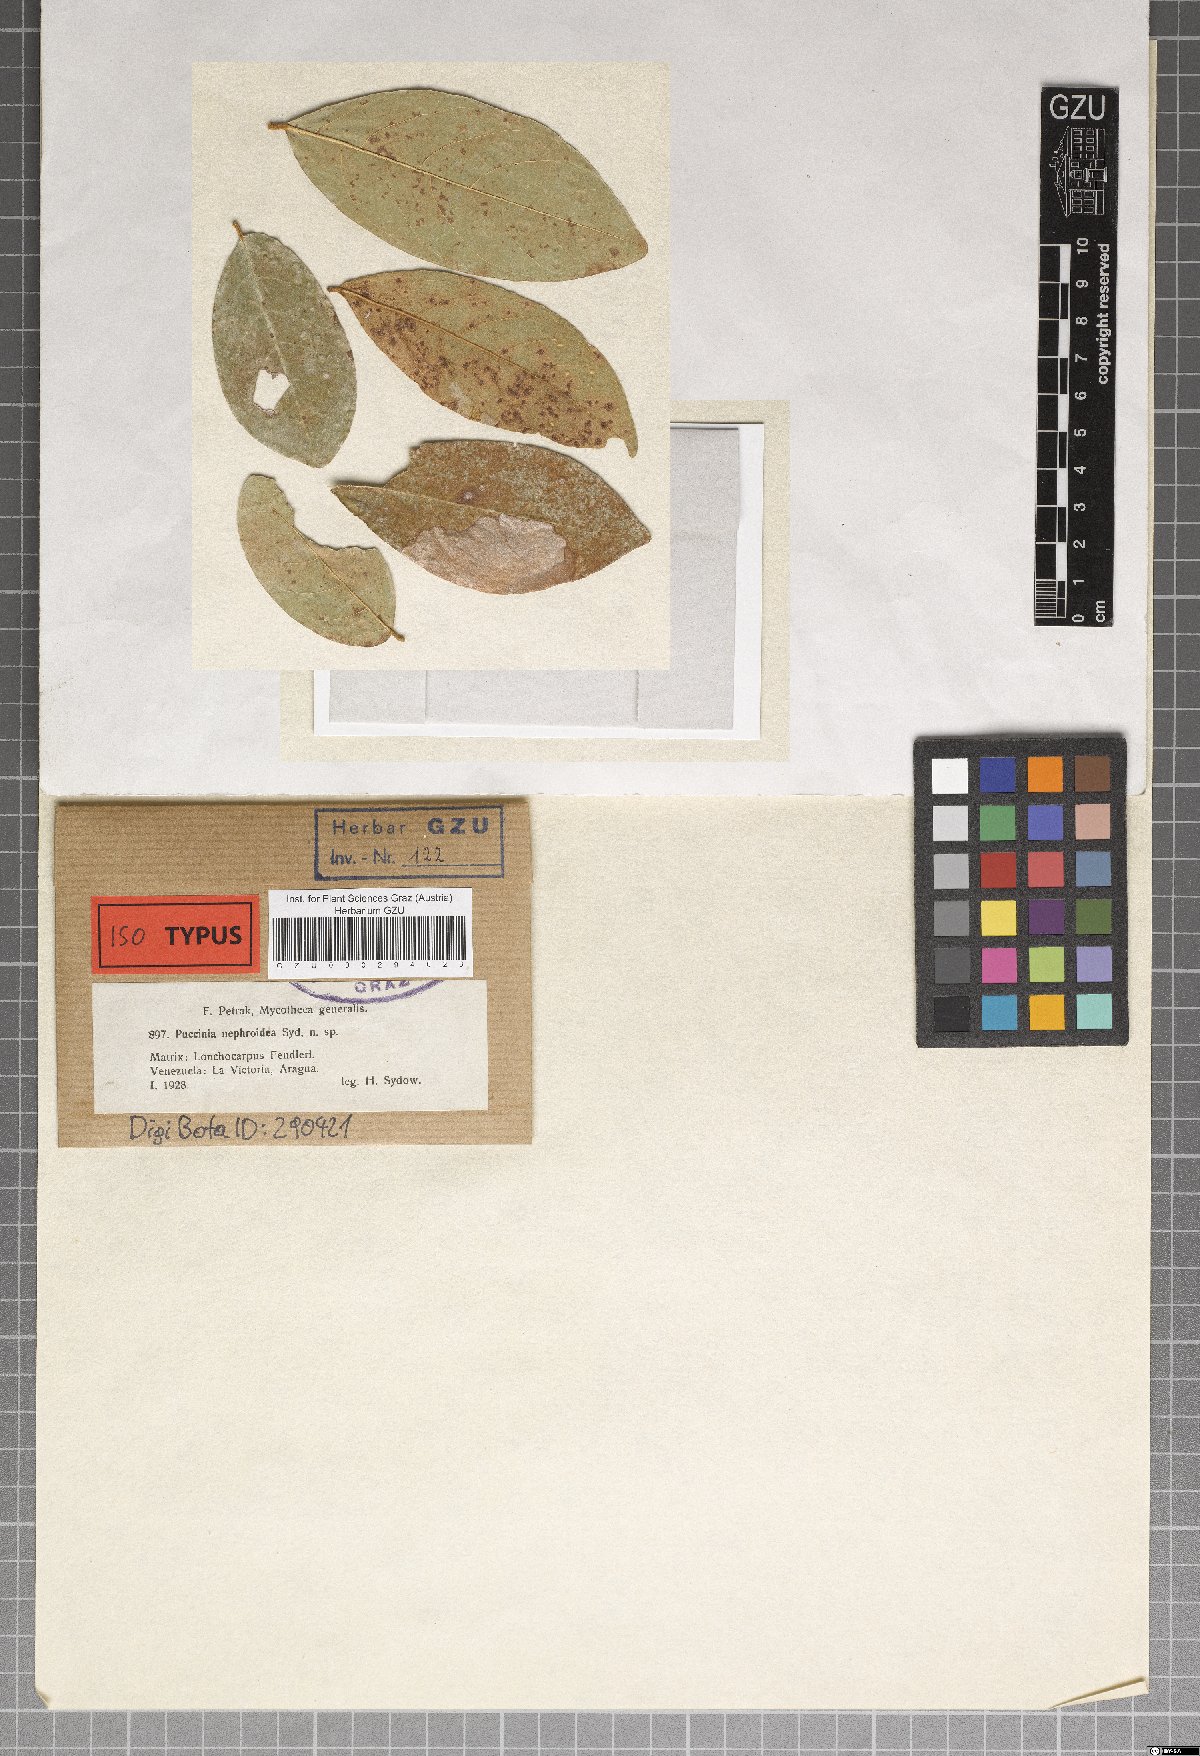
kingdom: Fungi
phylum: Basidiomycota
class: Pucciniomycetes
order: Pucciniales
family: Uropyxidaceae
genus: Sorataea
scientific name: Sorataea nephroidea
